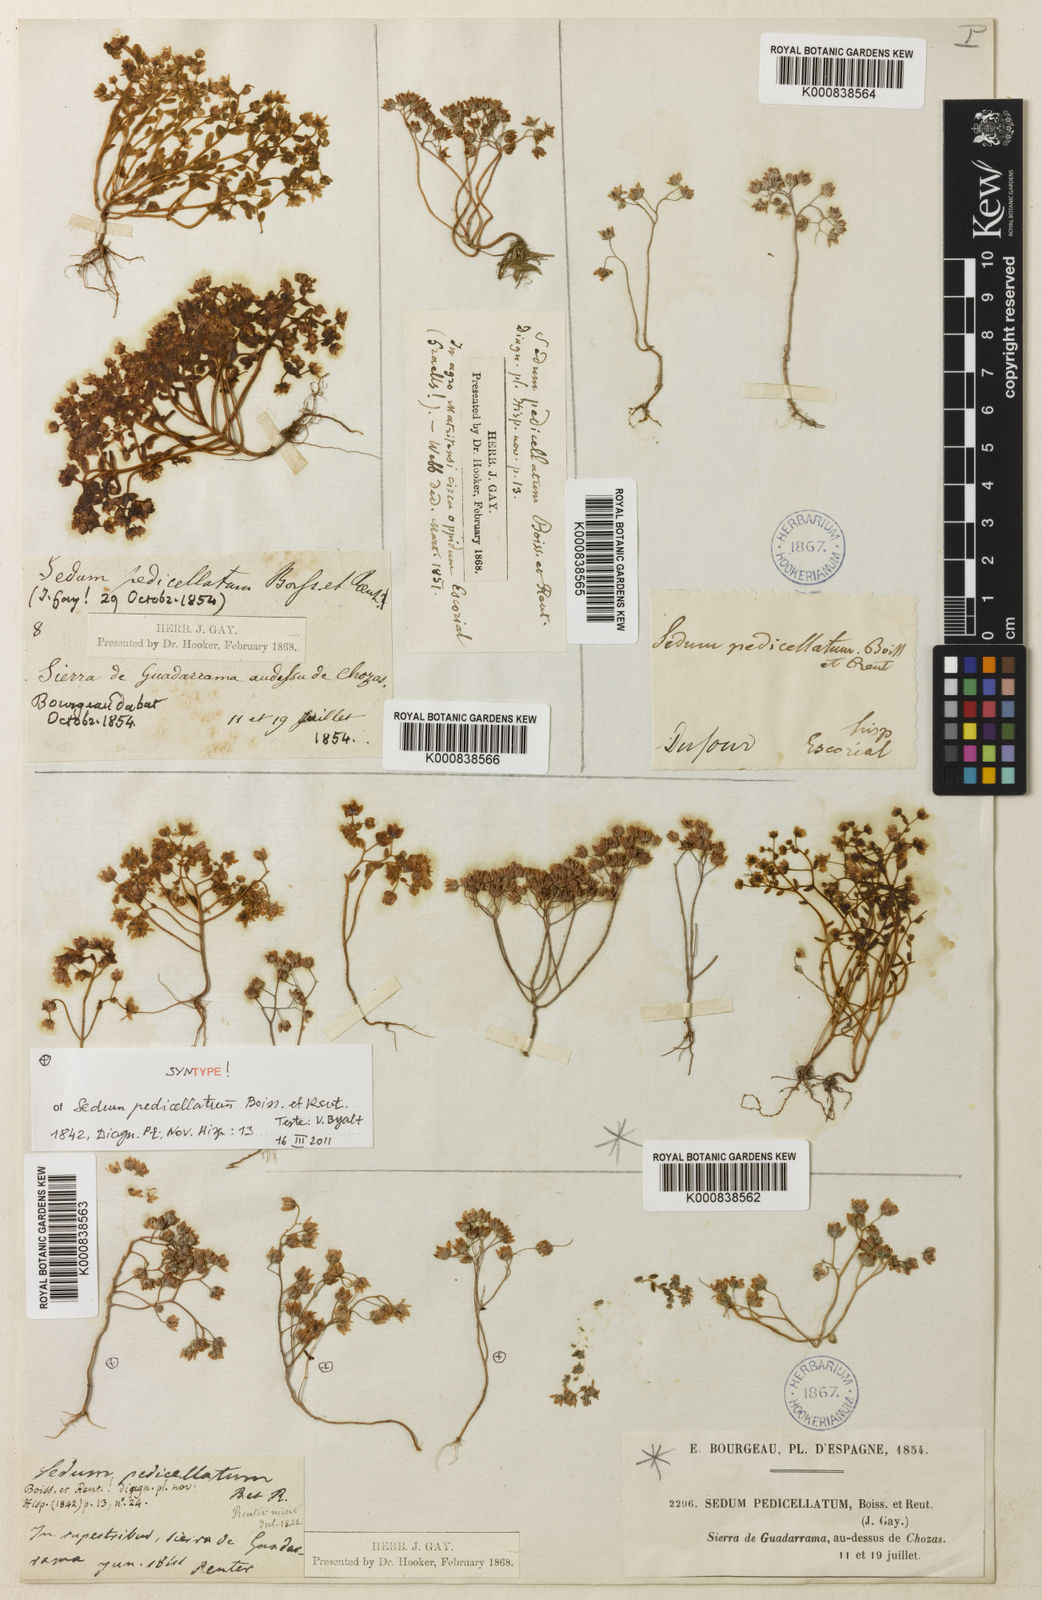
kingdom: Plantae
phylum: Tracheophyta
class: Magnoliopsida
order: Saxifragales
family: Crassulaceae
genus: Sedum
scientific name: Sedum pedicellatum
